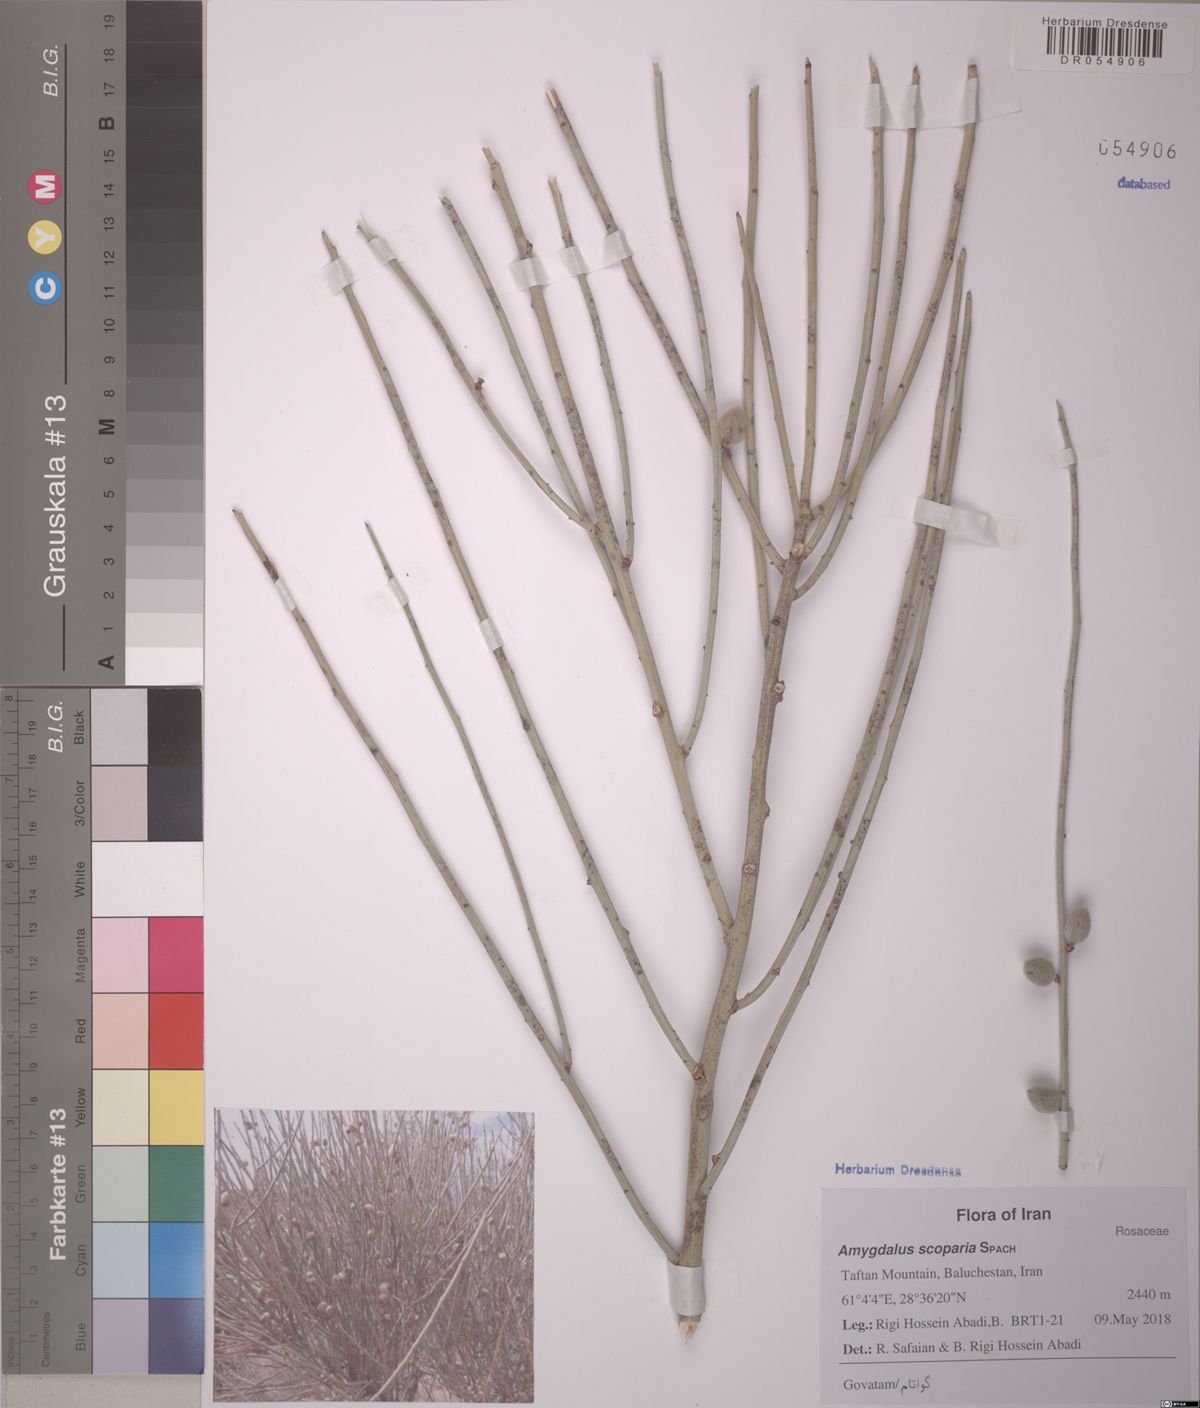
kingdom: Plantae
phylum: Tracheophyta
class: Magnoliopsida
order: Rosales
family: Rosaceae
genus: Prunus
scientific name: Prunus scoparia
